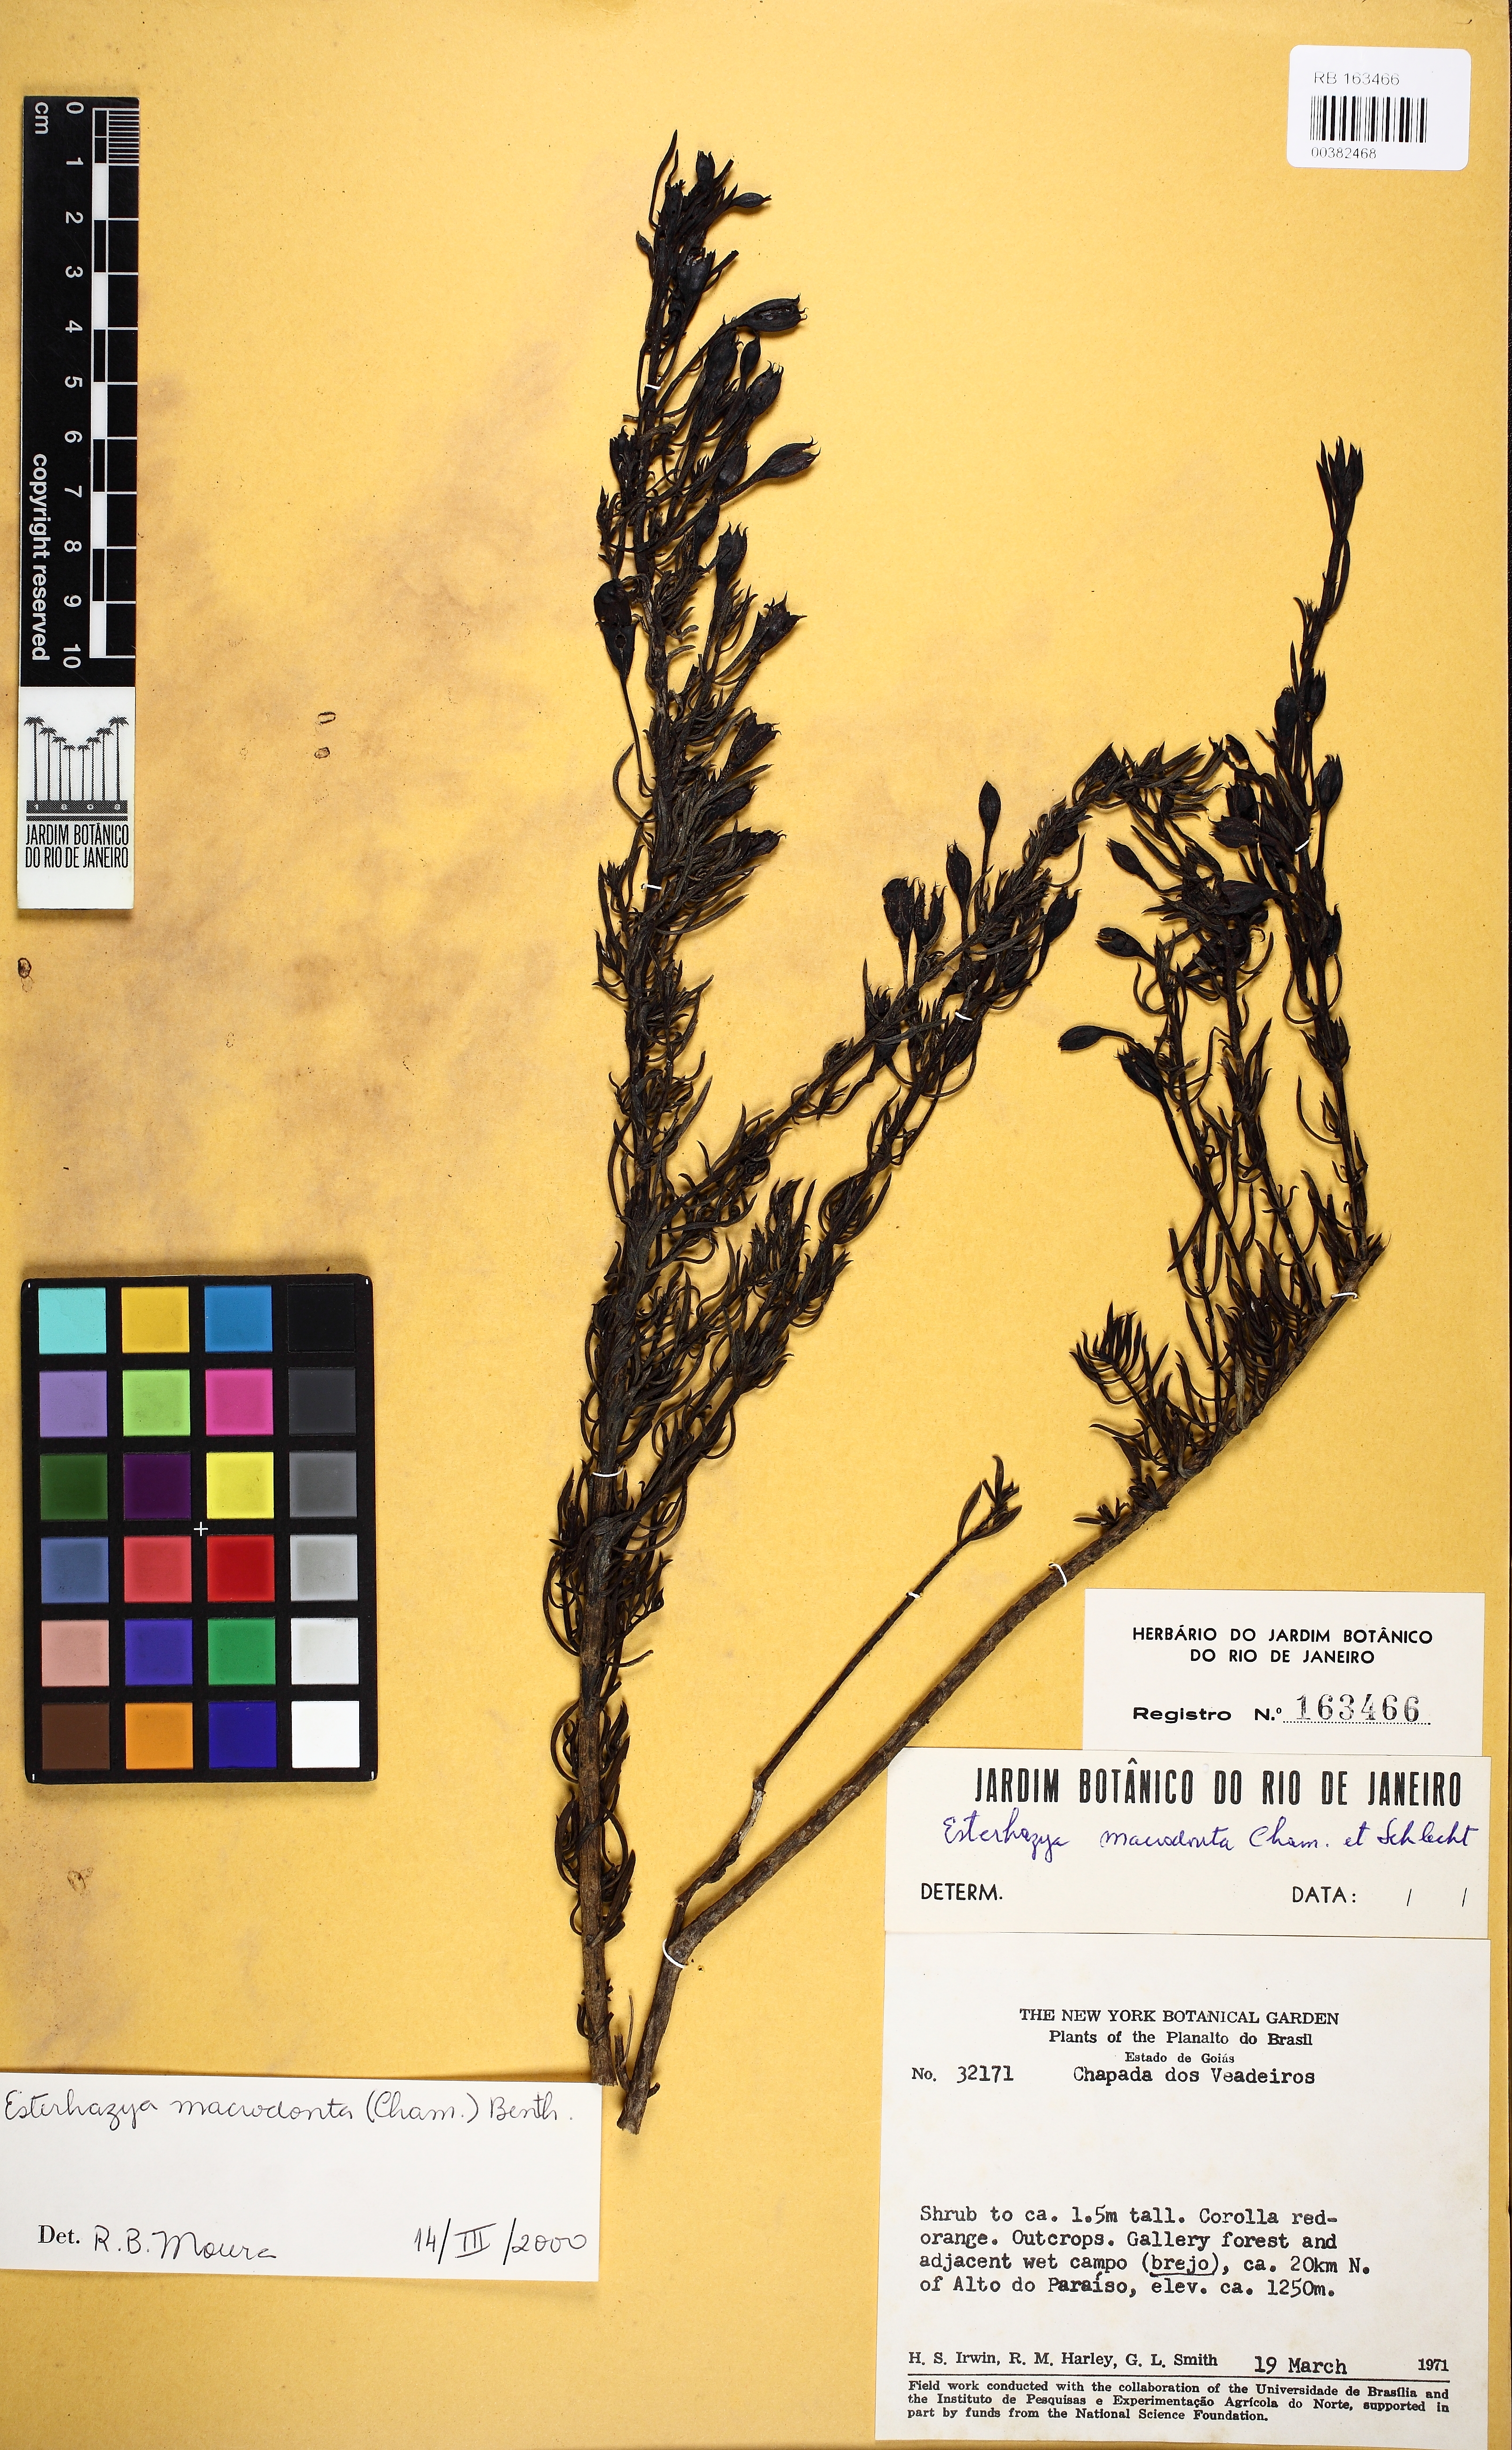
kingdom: Plantae
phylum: Tracheophyta
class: Magnoliopsida
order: Lamiales
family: Orobanchaceae
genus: Esterhazya
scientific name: Esterhazya macrodonta
